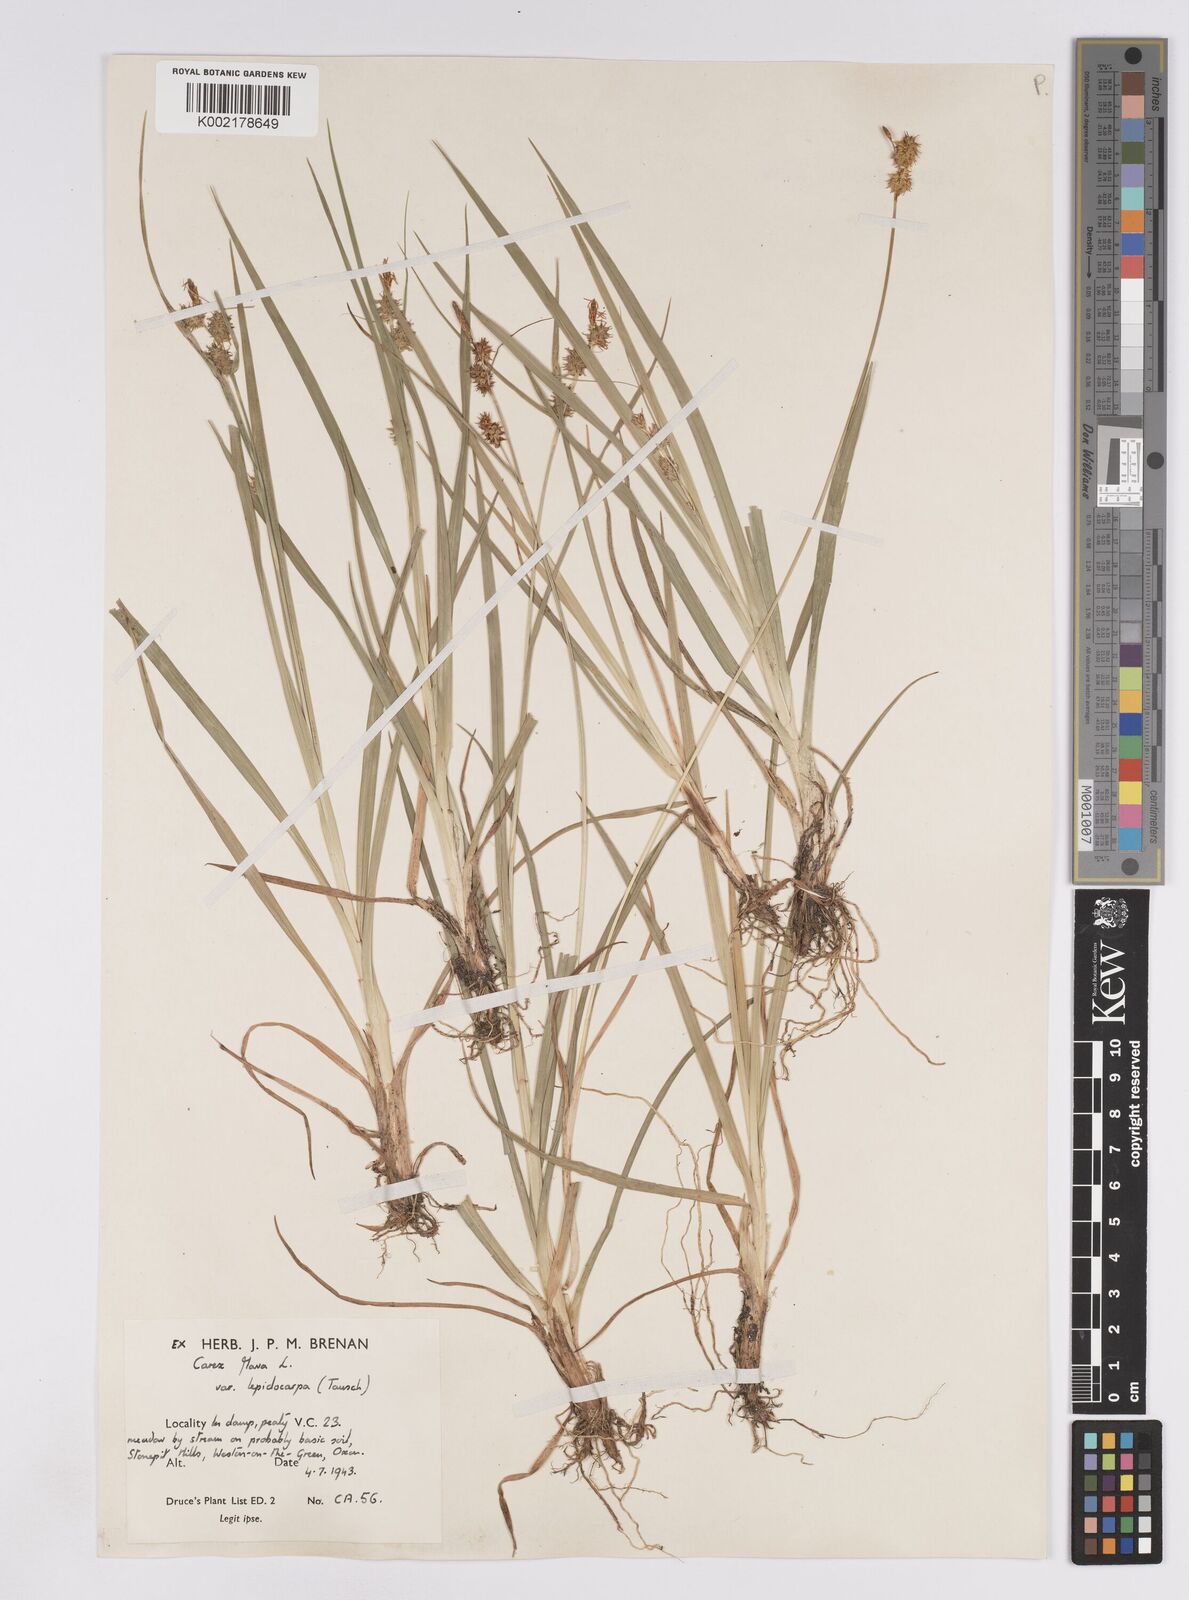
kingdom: Plantae
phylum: Tracheophyta
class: Liliopsida
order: Poales
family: Cyperaceae
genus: Carex
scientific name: Carex lepidocarpa
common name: Long-stalked yellow-sedge
